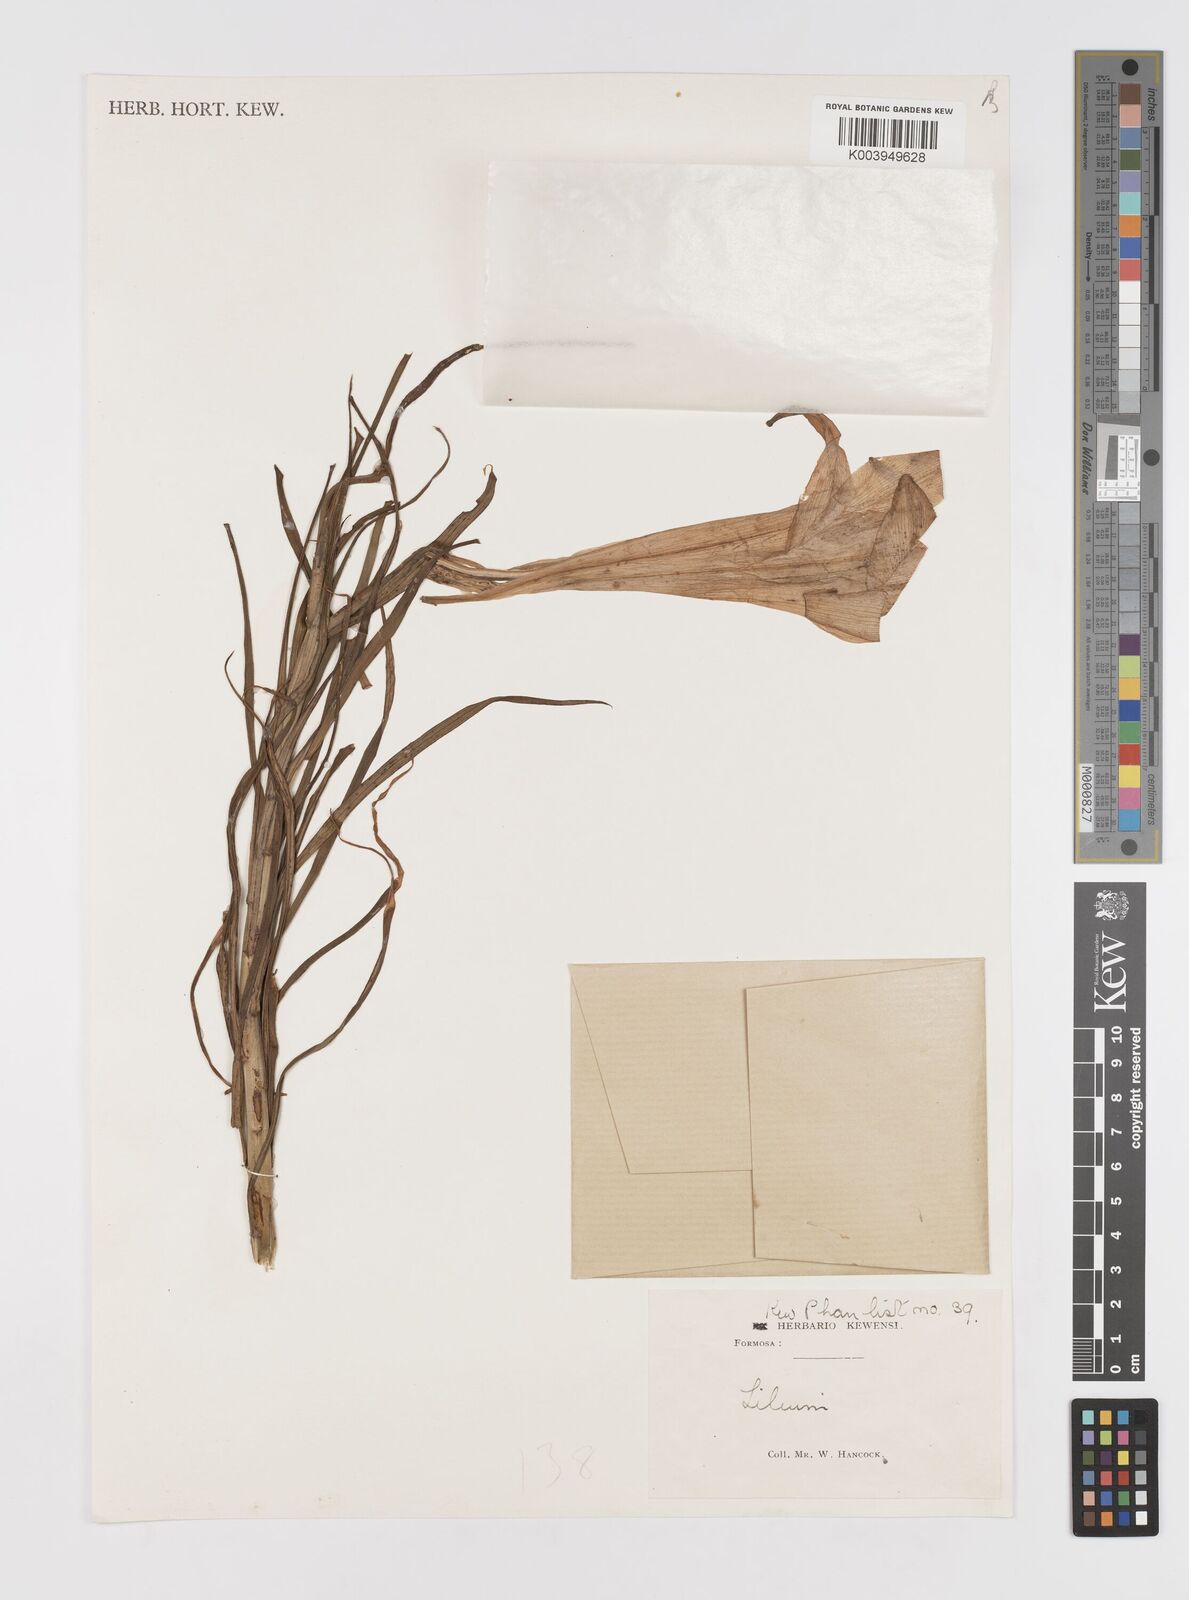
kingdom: Plantae
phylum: Tracheophyta
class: Liliopsida
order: Liliales
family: Liliaceae
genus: Lilium
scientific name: Lilium
